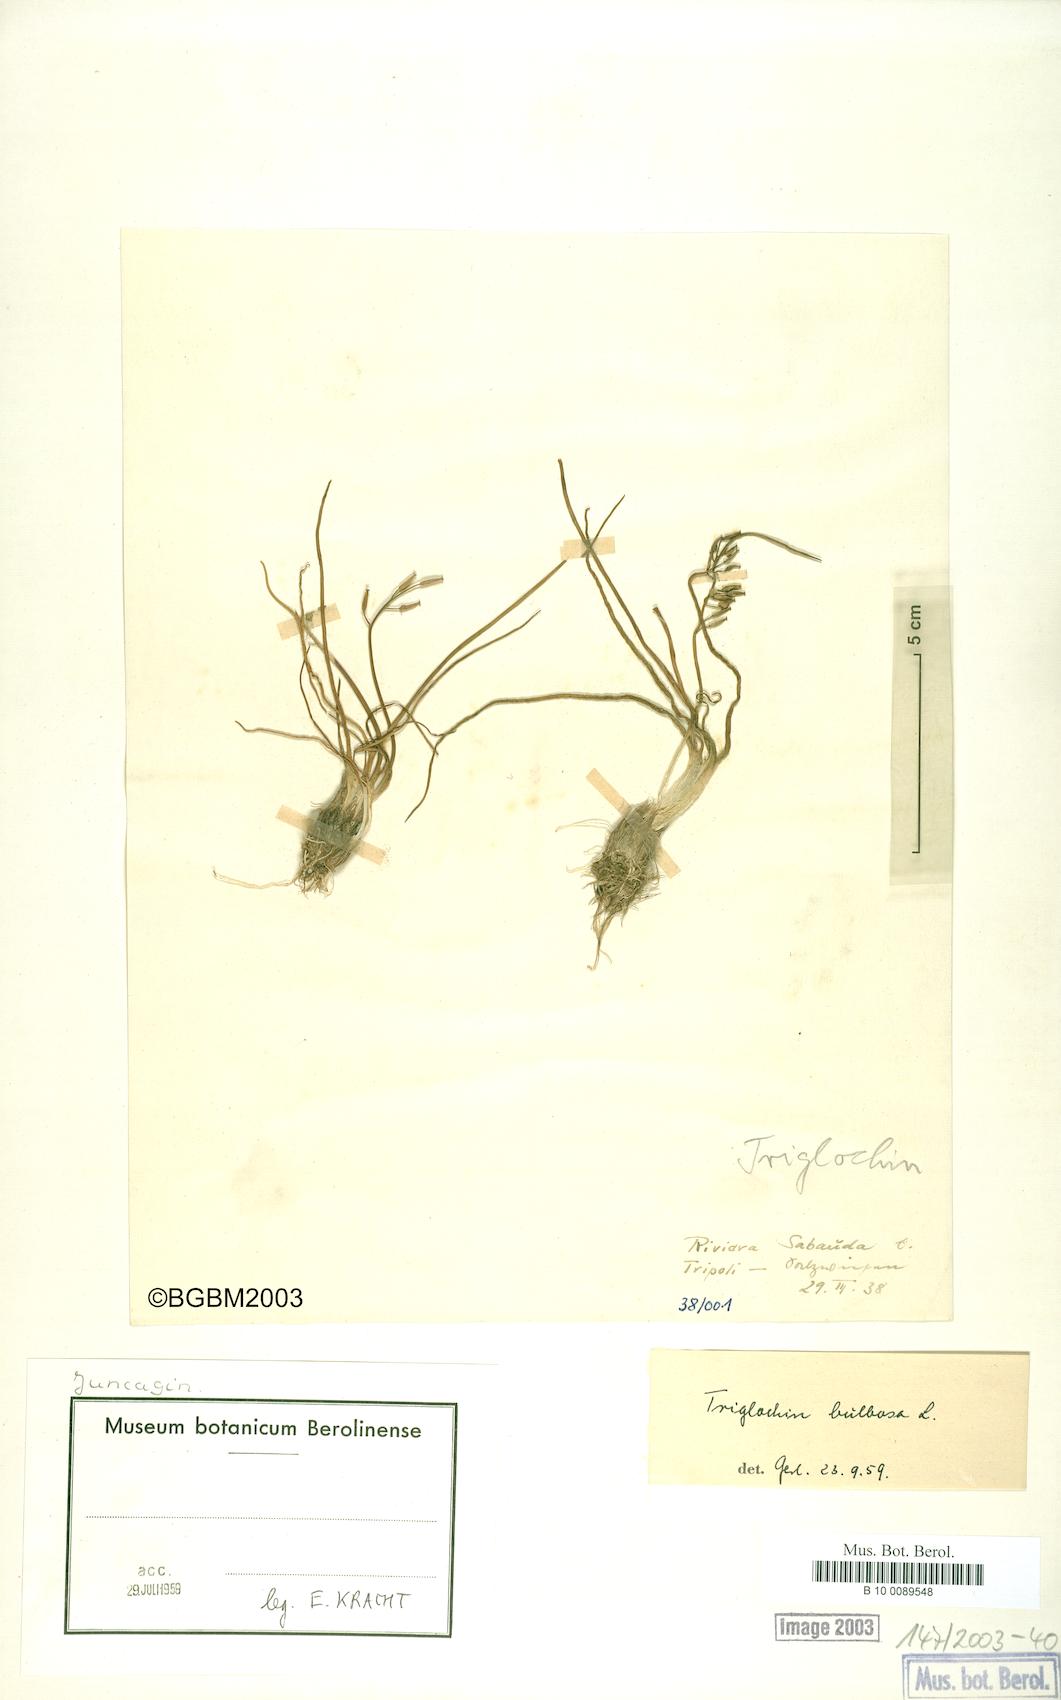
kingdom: Plantae
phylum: Tracheophyta
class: Liliopsida
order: Alismatales
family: Juncaginaceae
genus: Triglochin
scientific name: Triglochin bulbosa
